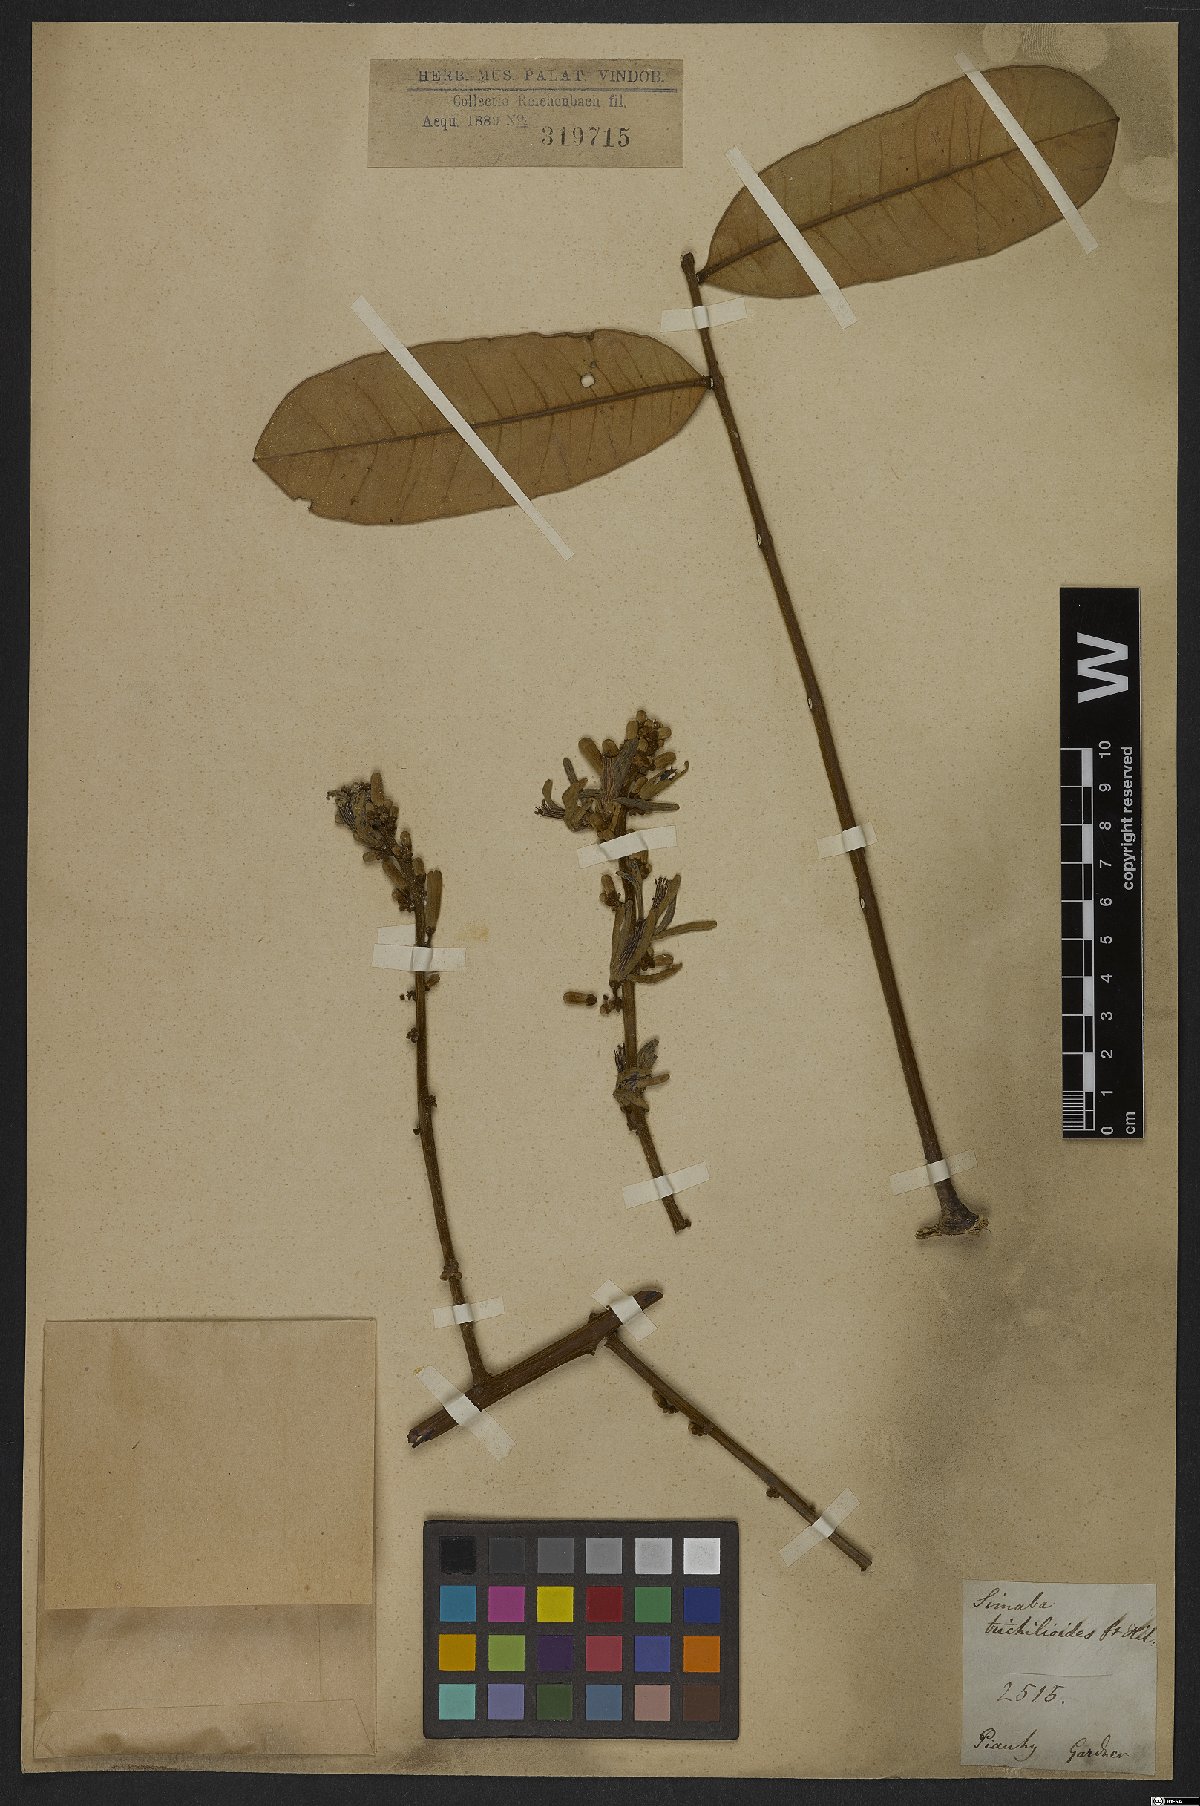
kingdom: Plantae
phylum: Tracheophyta
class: Magnoliopsida
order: Sapindales
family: Simaroubaceae
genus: Homalolepis
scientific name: Homalolepis trichilioides
